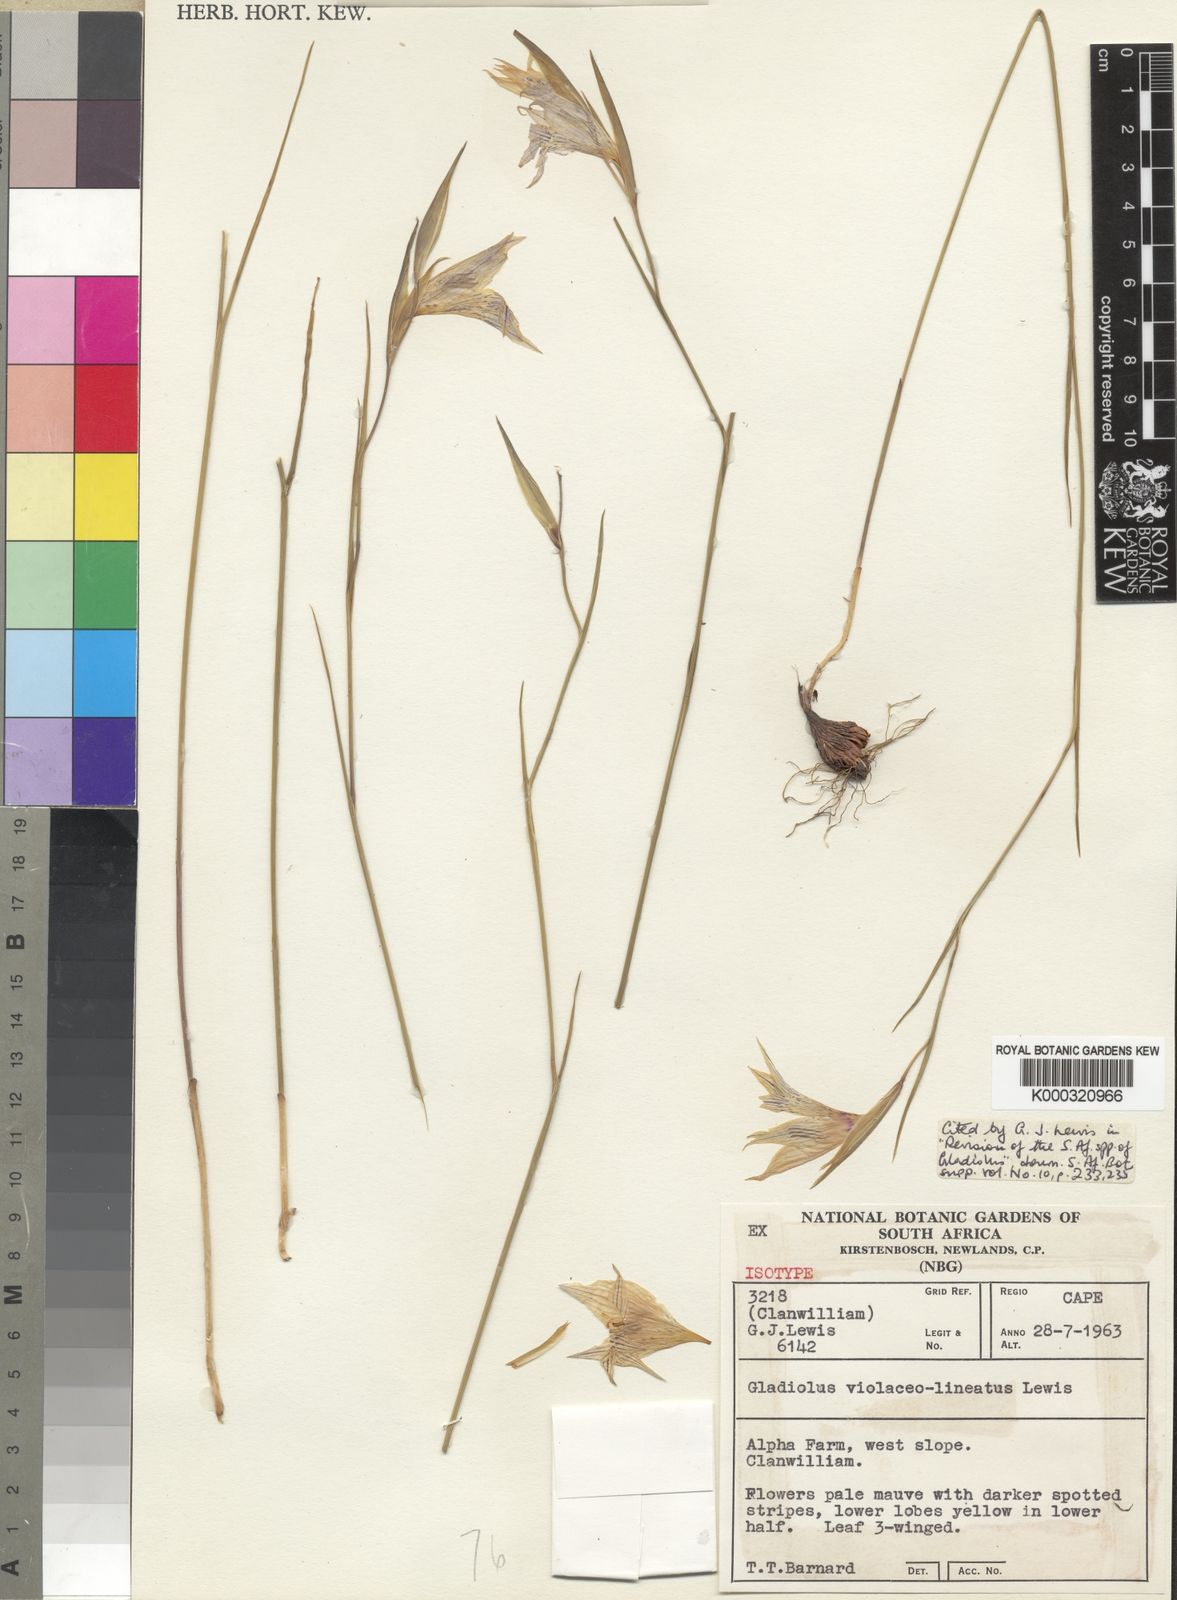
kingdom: Plantae
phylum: Tracheophyta
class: Liliopsida
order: Asparagales
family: Iridaceae
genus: Gladiolus
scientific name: Gladiolus violaceolineatus
